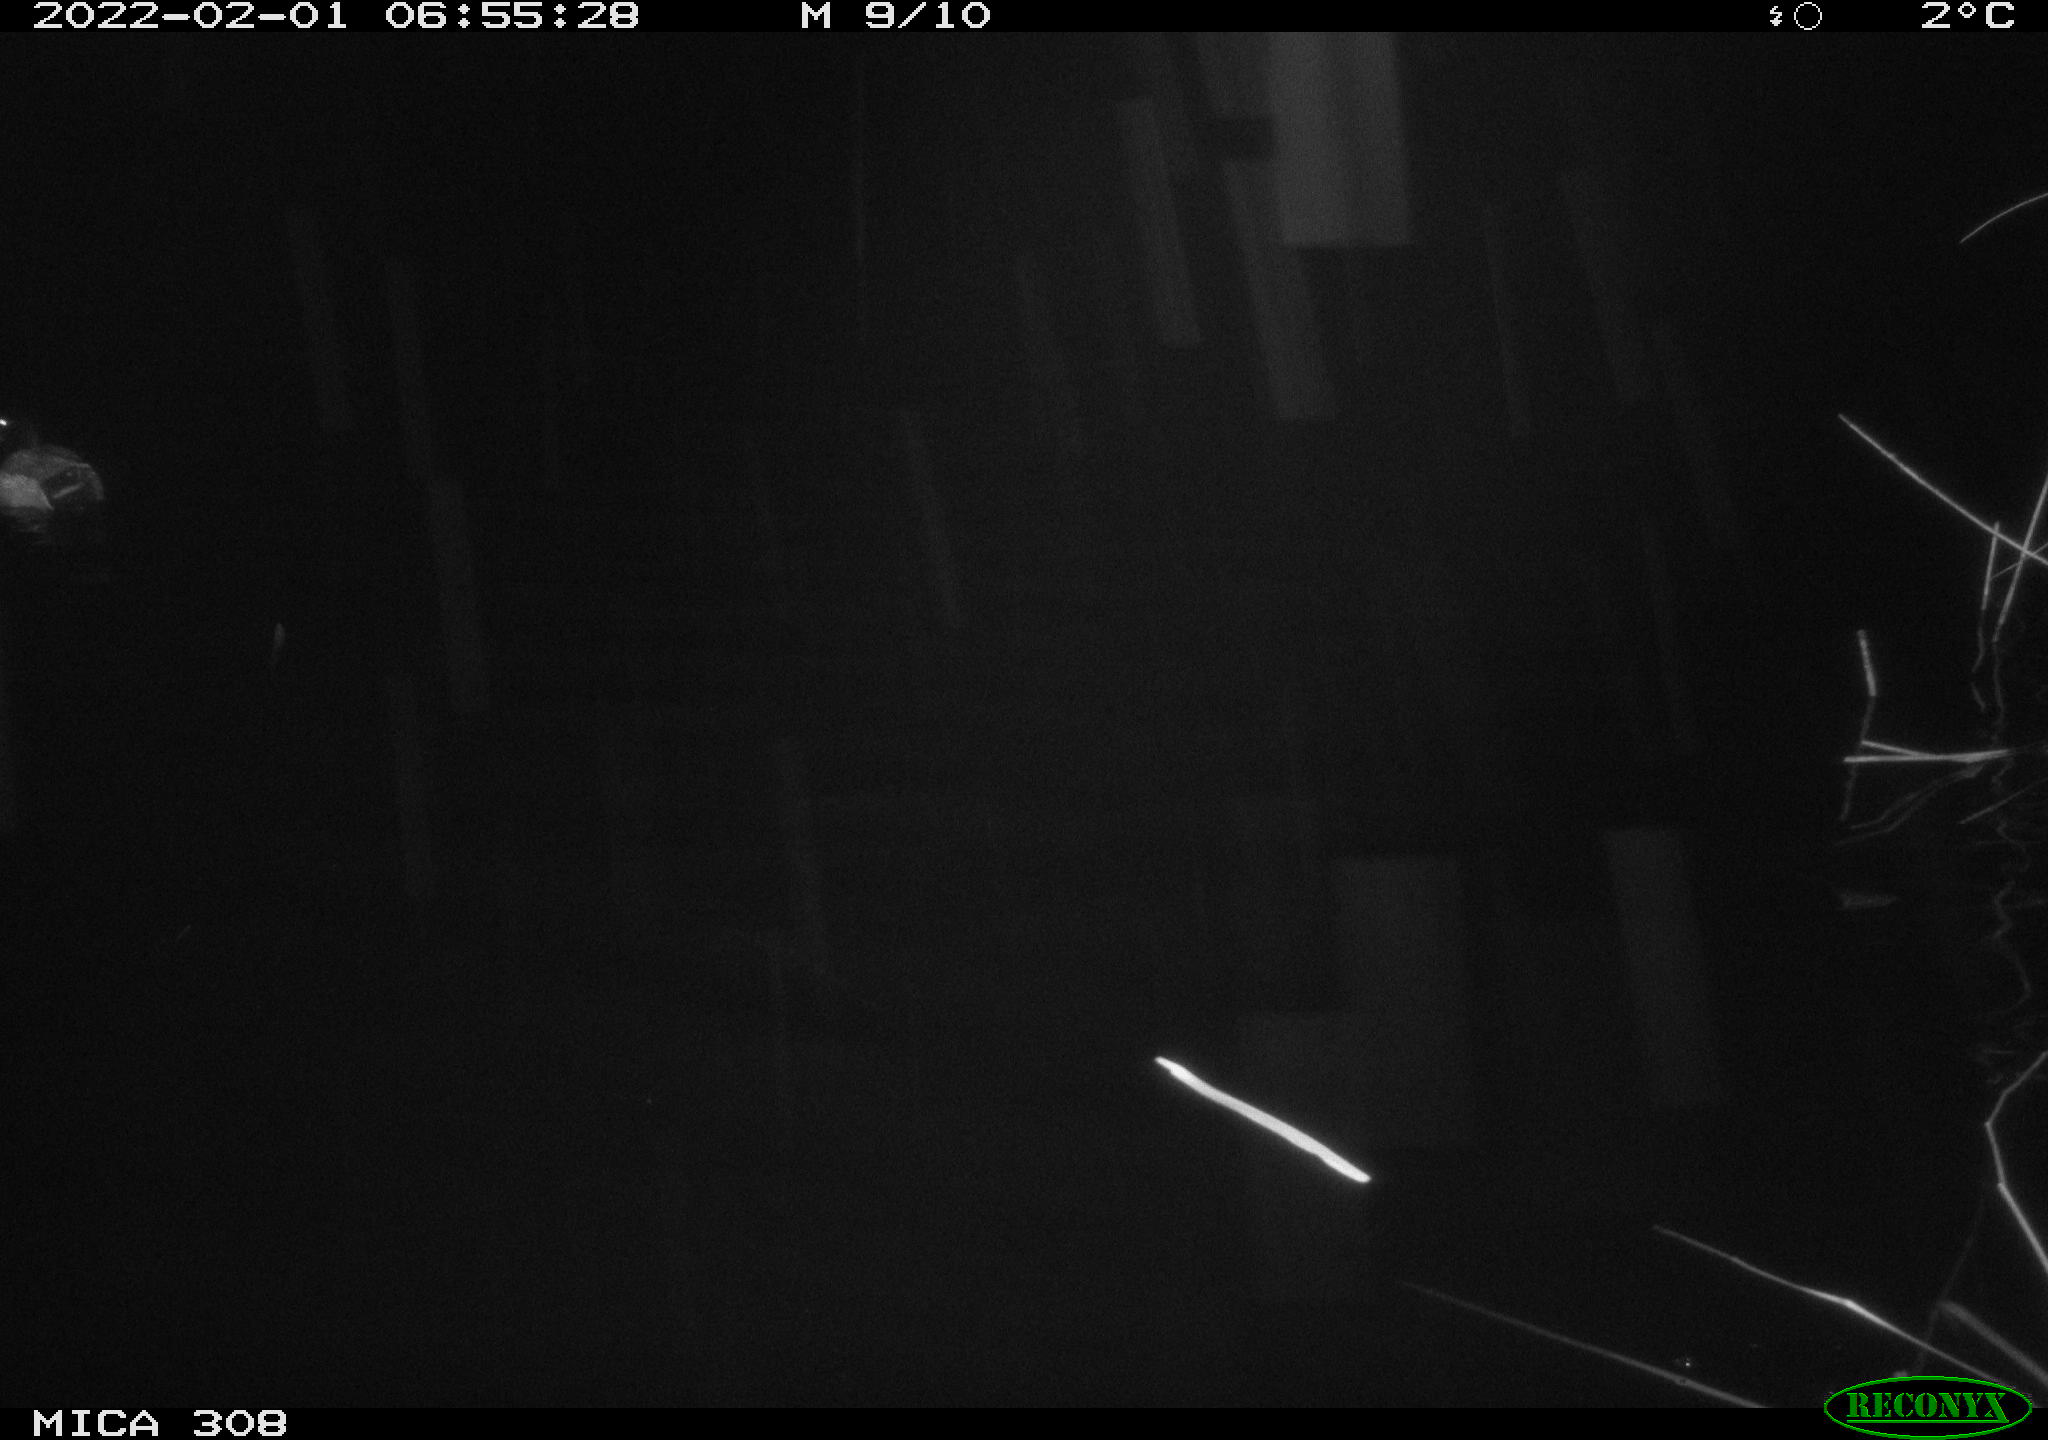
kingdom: Animalia
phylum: Chordata
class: Aves
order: Anseriformes
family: Anatidae
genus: Anas
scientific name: Anas
